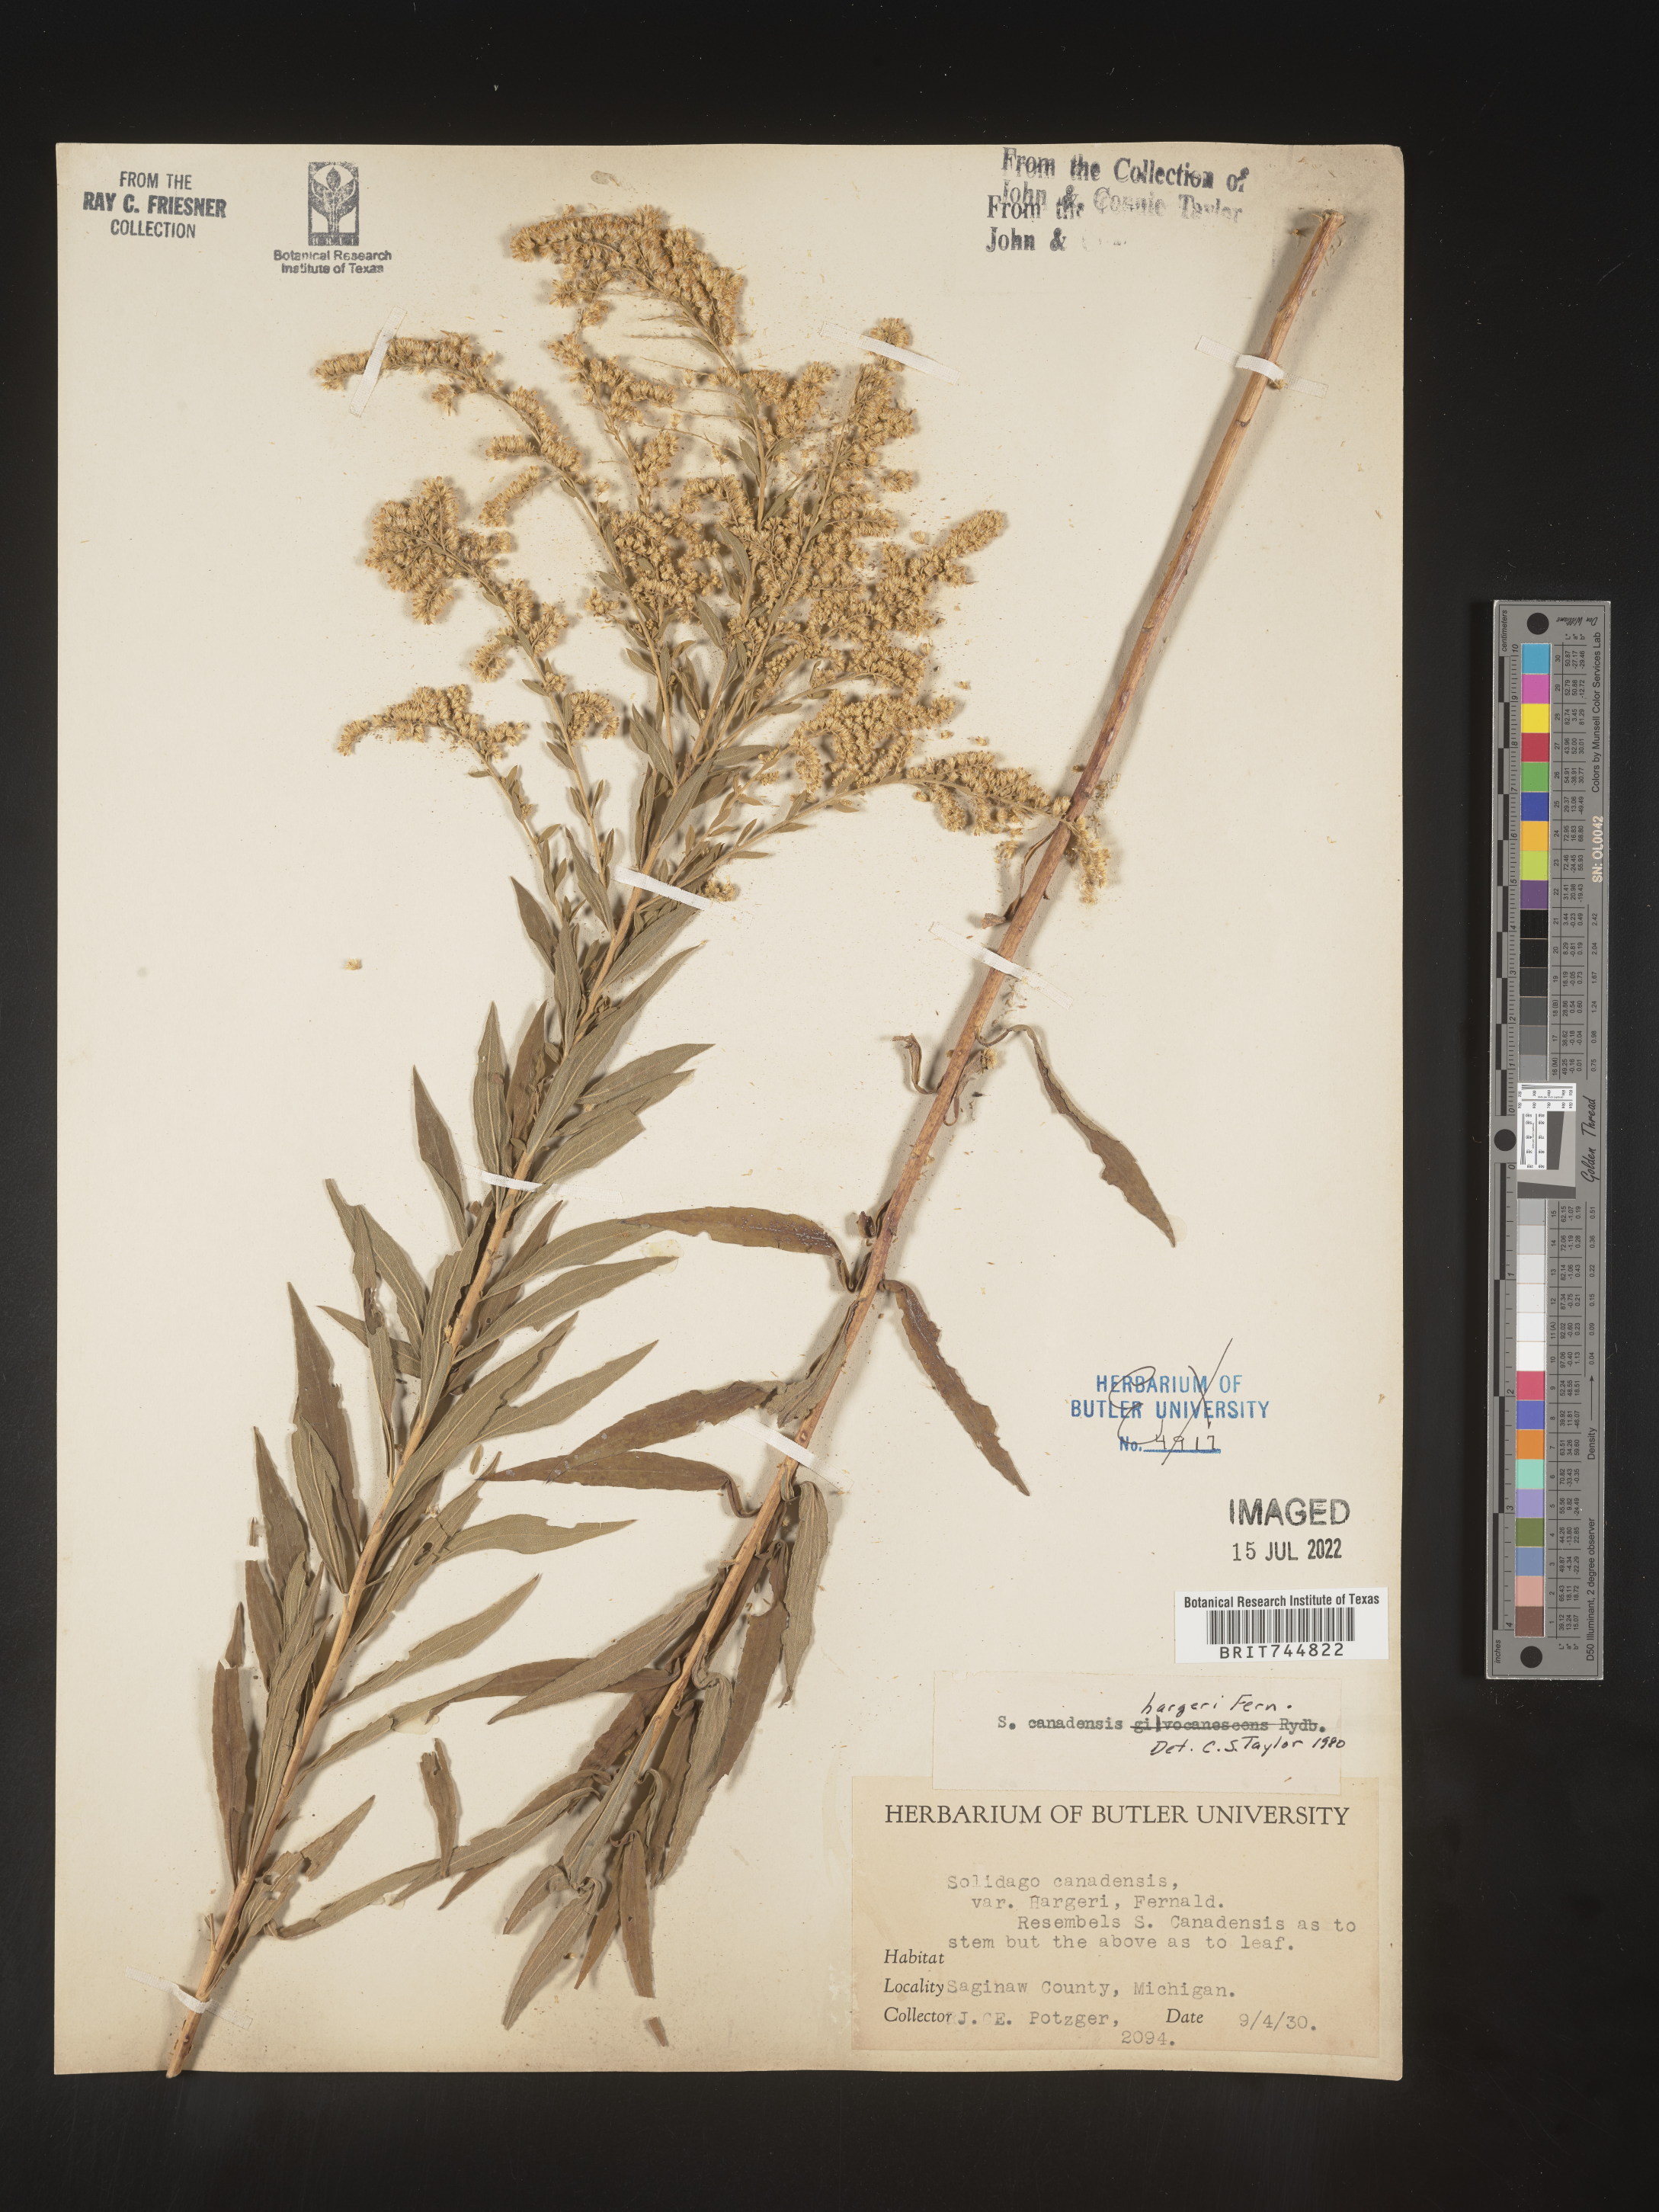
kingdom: Plantae
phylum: Tracheophyta
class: Magnoliopsida
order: Asterales
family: Asteraceae
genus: Solidago
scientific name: Solidago canadensis
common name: Canada goldenrod
